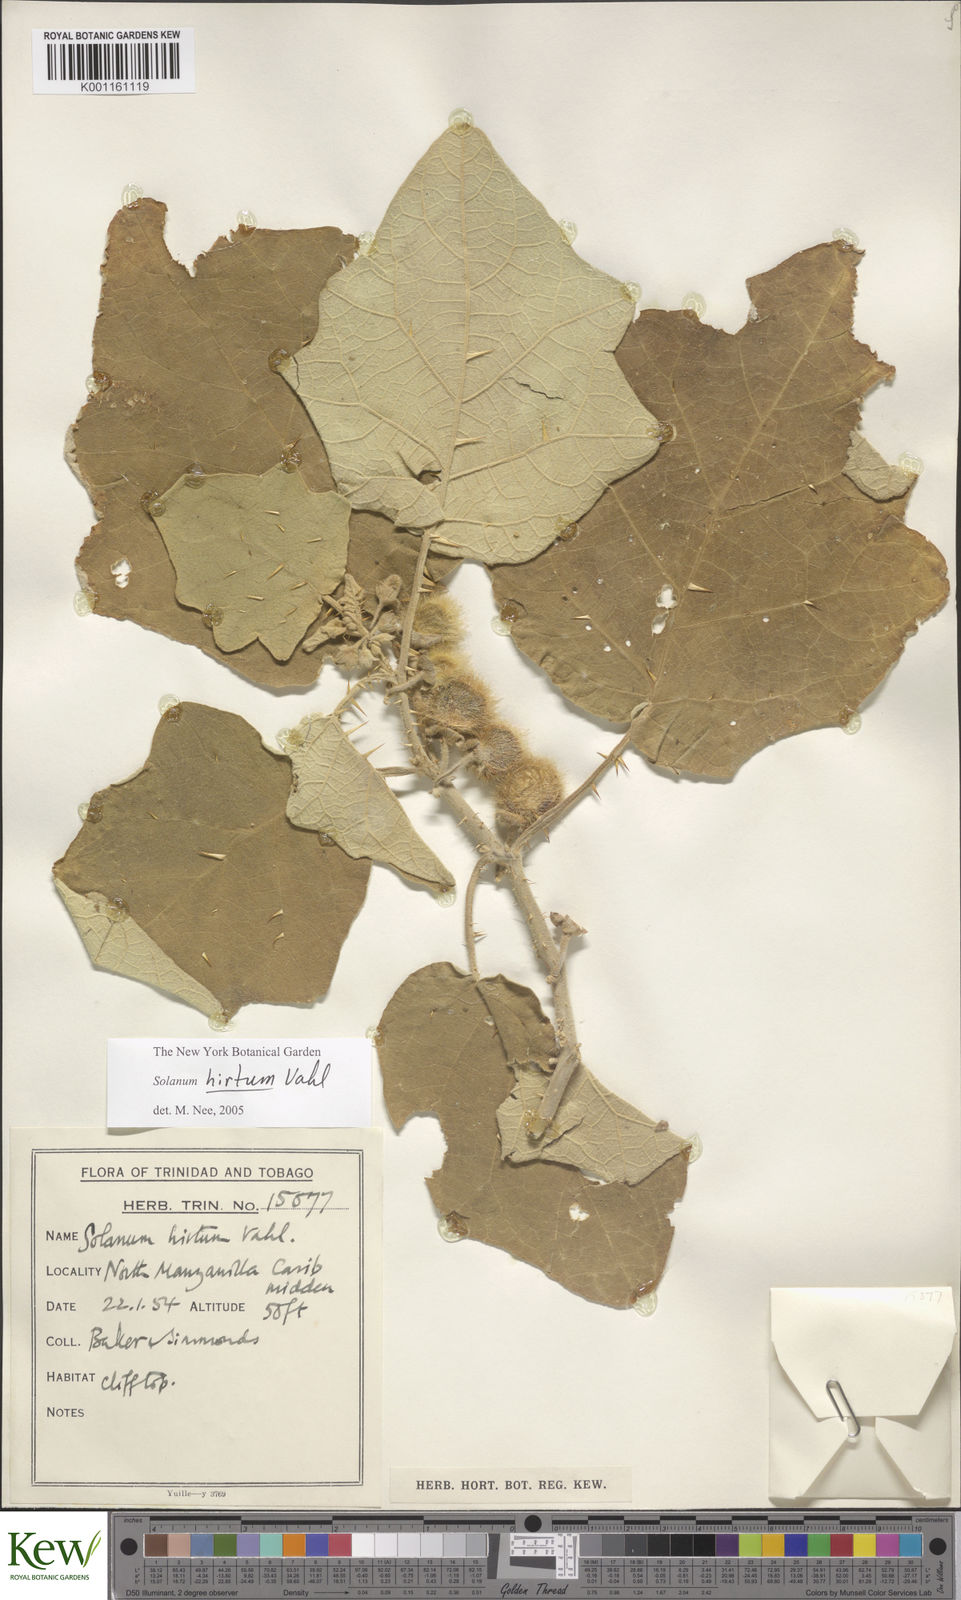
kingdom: Plantae
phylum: Tracheophyta
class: Magnoliopsida
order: Solanales
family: Solanaceae
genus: Solanum
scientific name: Solanum hirtum
